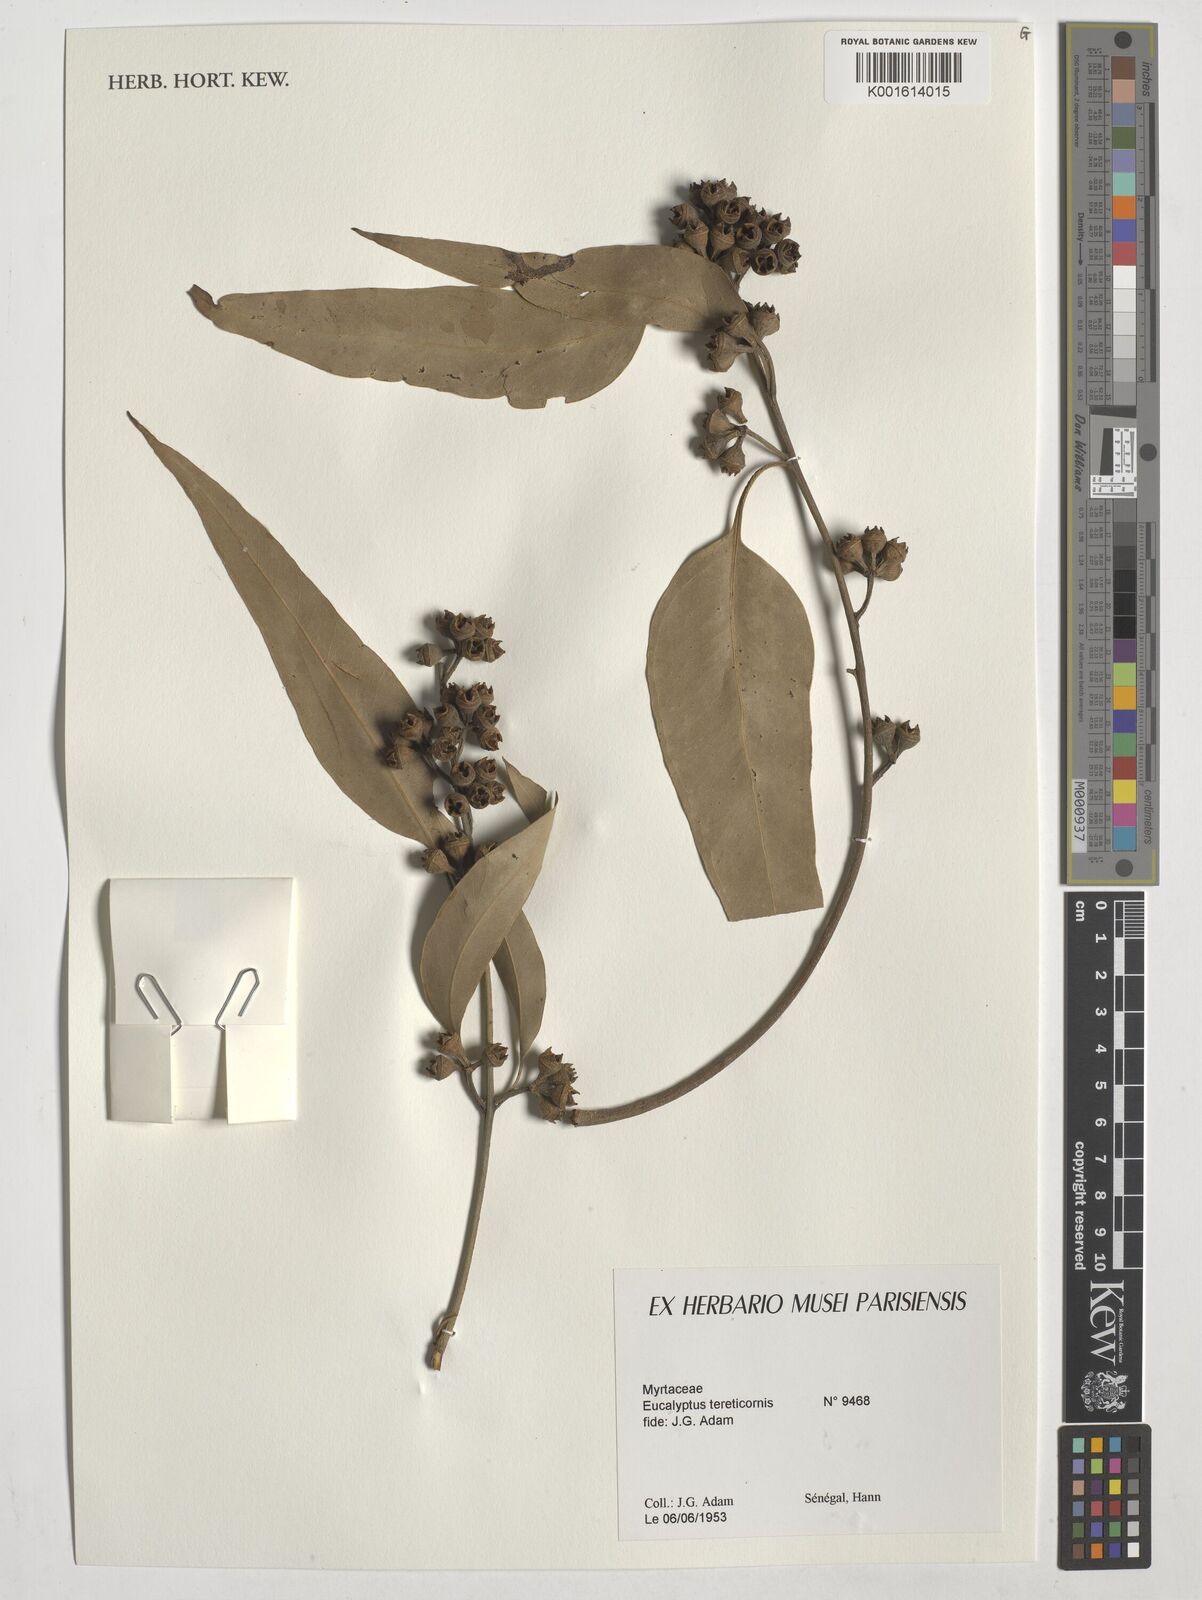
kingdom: Plantae
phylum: Tracheophyta
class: Magnoliopsida
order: Myrtales
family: Myrtaceae
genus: Eucalyptus
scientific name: Eucalyptus tereticornis
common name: Forest redgum
